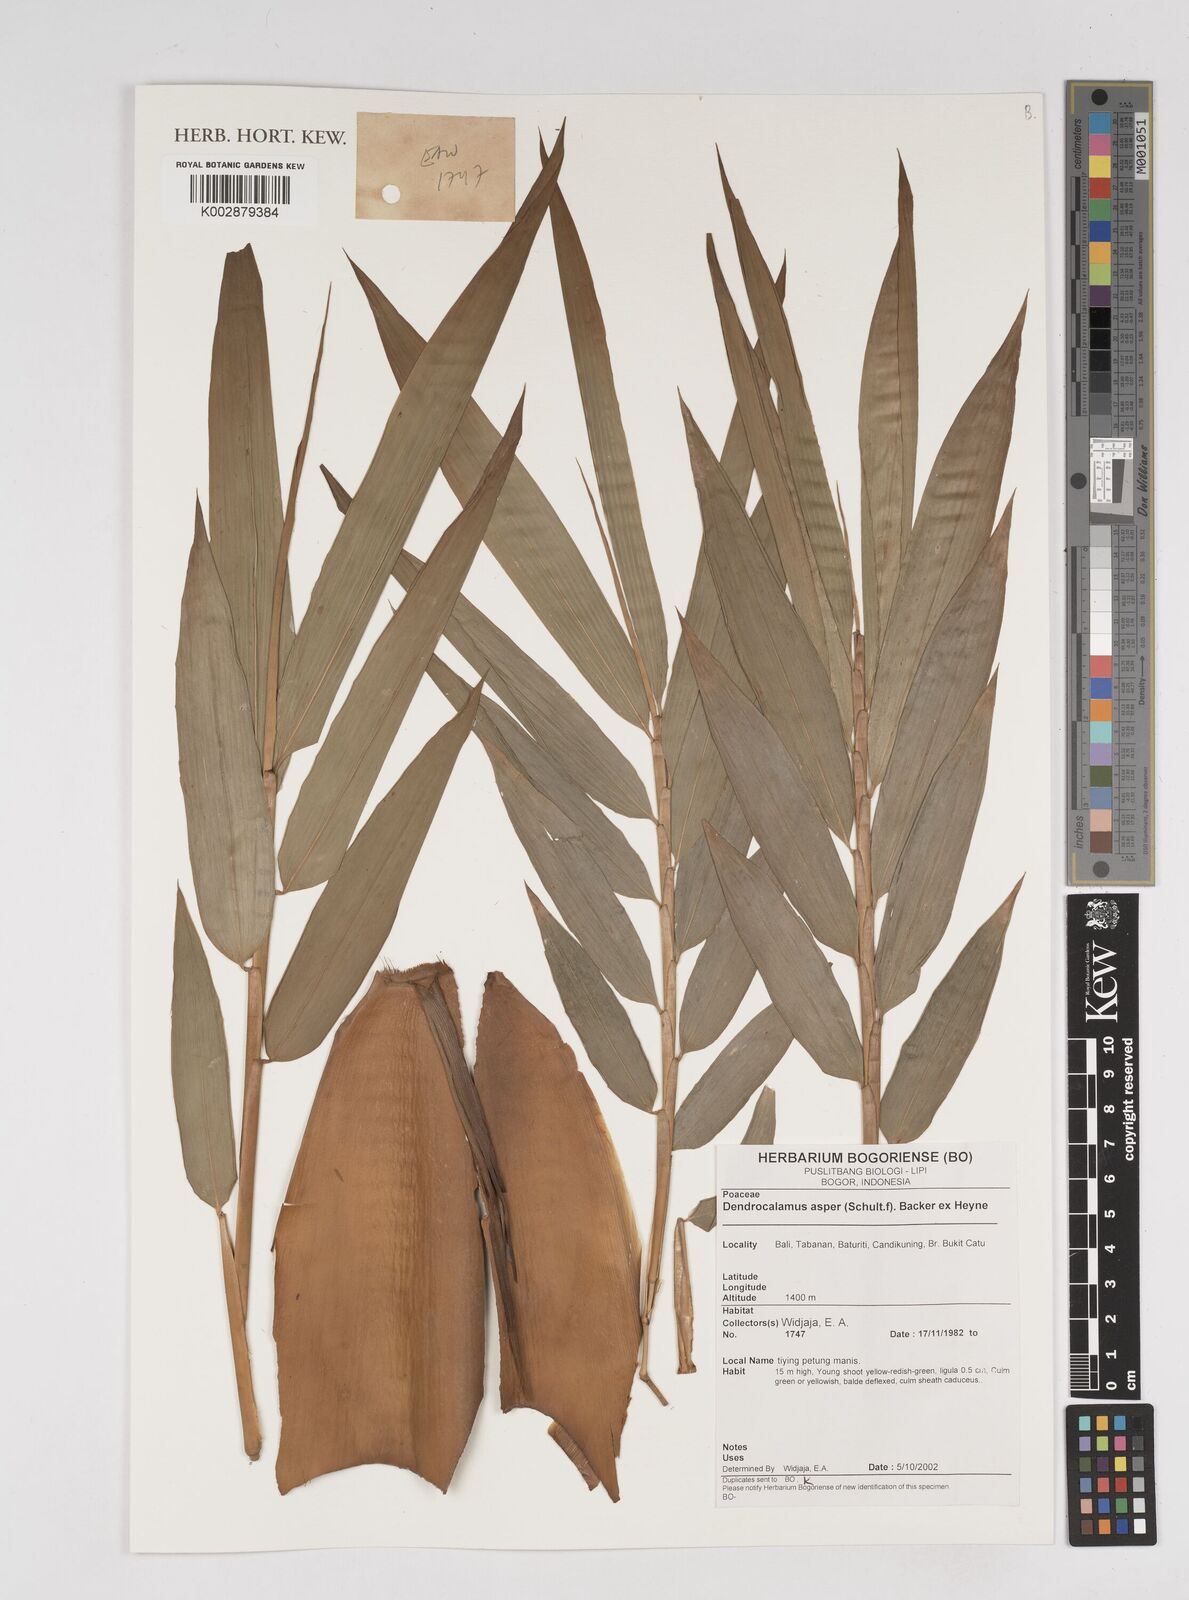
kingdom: Plantae
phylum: Tracheophyta
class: Liliopsida
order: Poales
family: Poaceae
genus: Dendrocalamus
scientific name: Dendrocalamus asper
